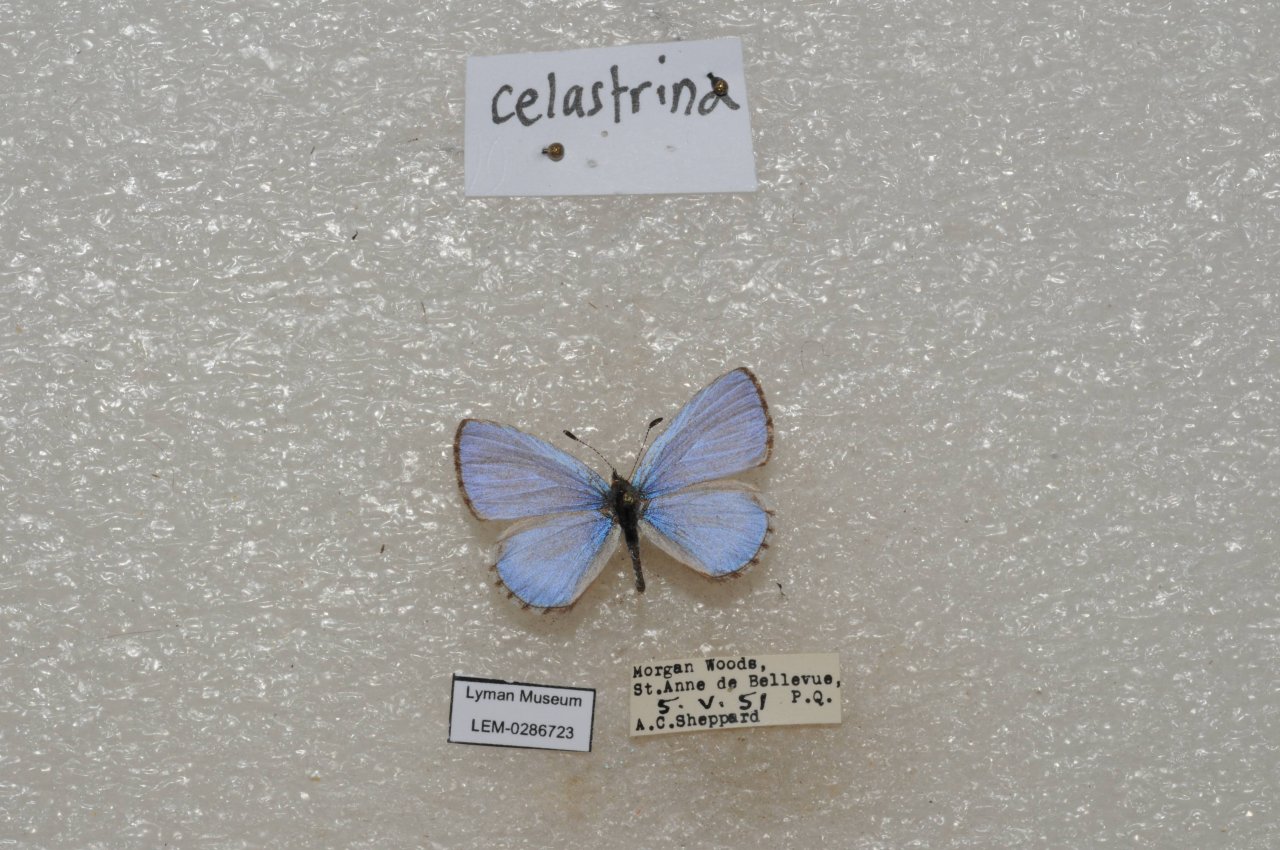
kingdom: Animalia
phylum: Arthropoda
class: Insecta
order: Lepidoptera
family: Lycaenidae
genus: Celastrina
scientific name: Celastrina lucia
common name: Northern Spring Azure
